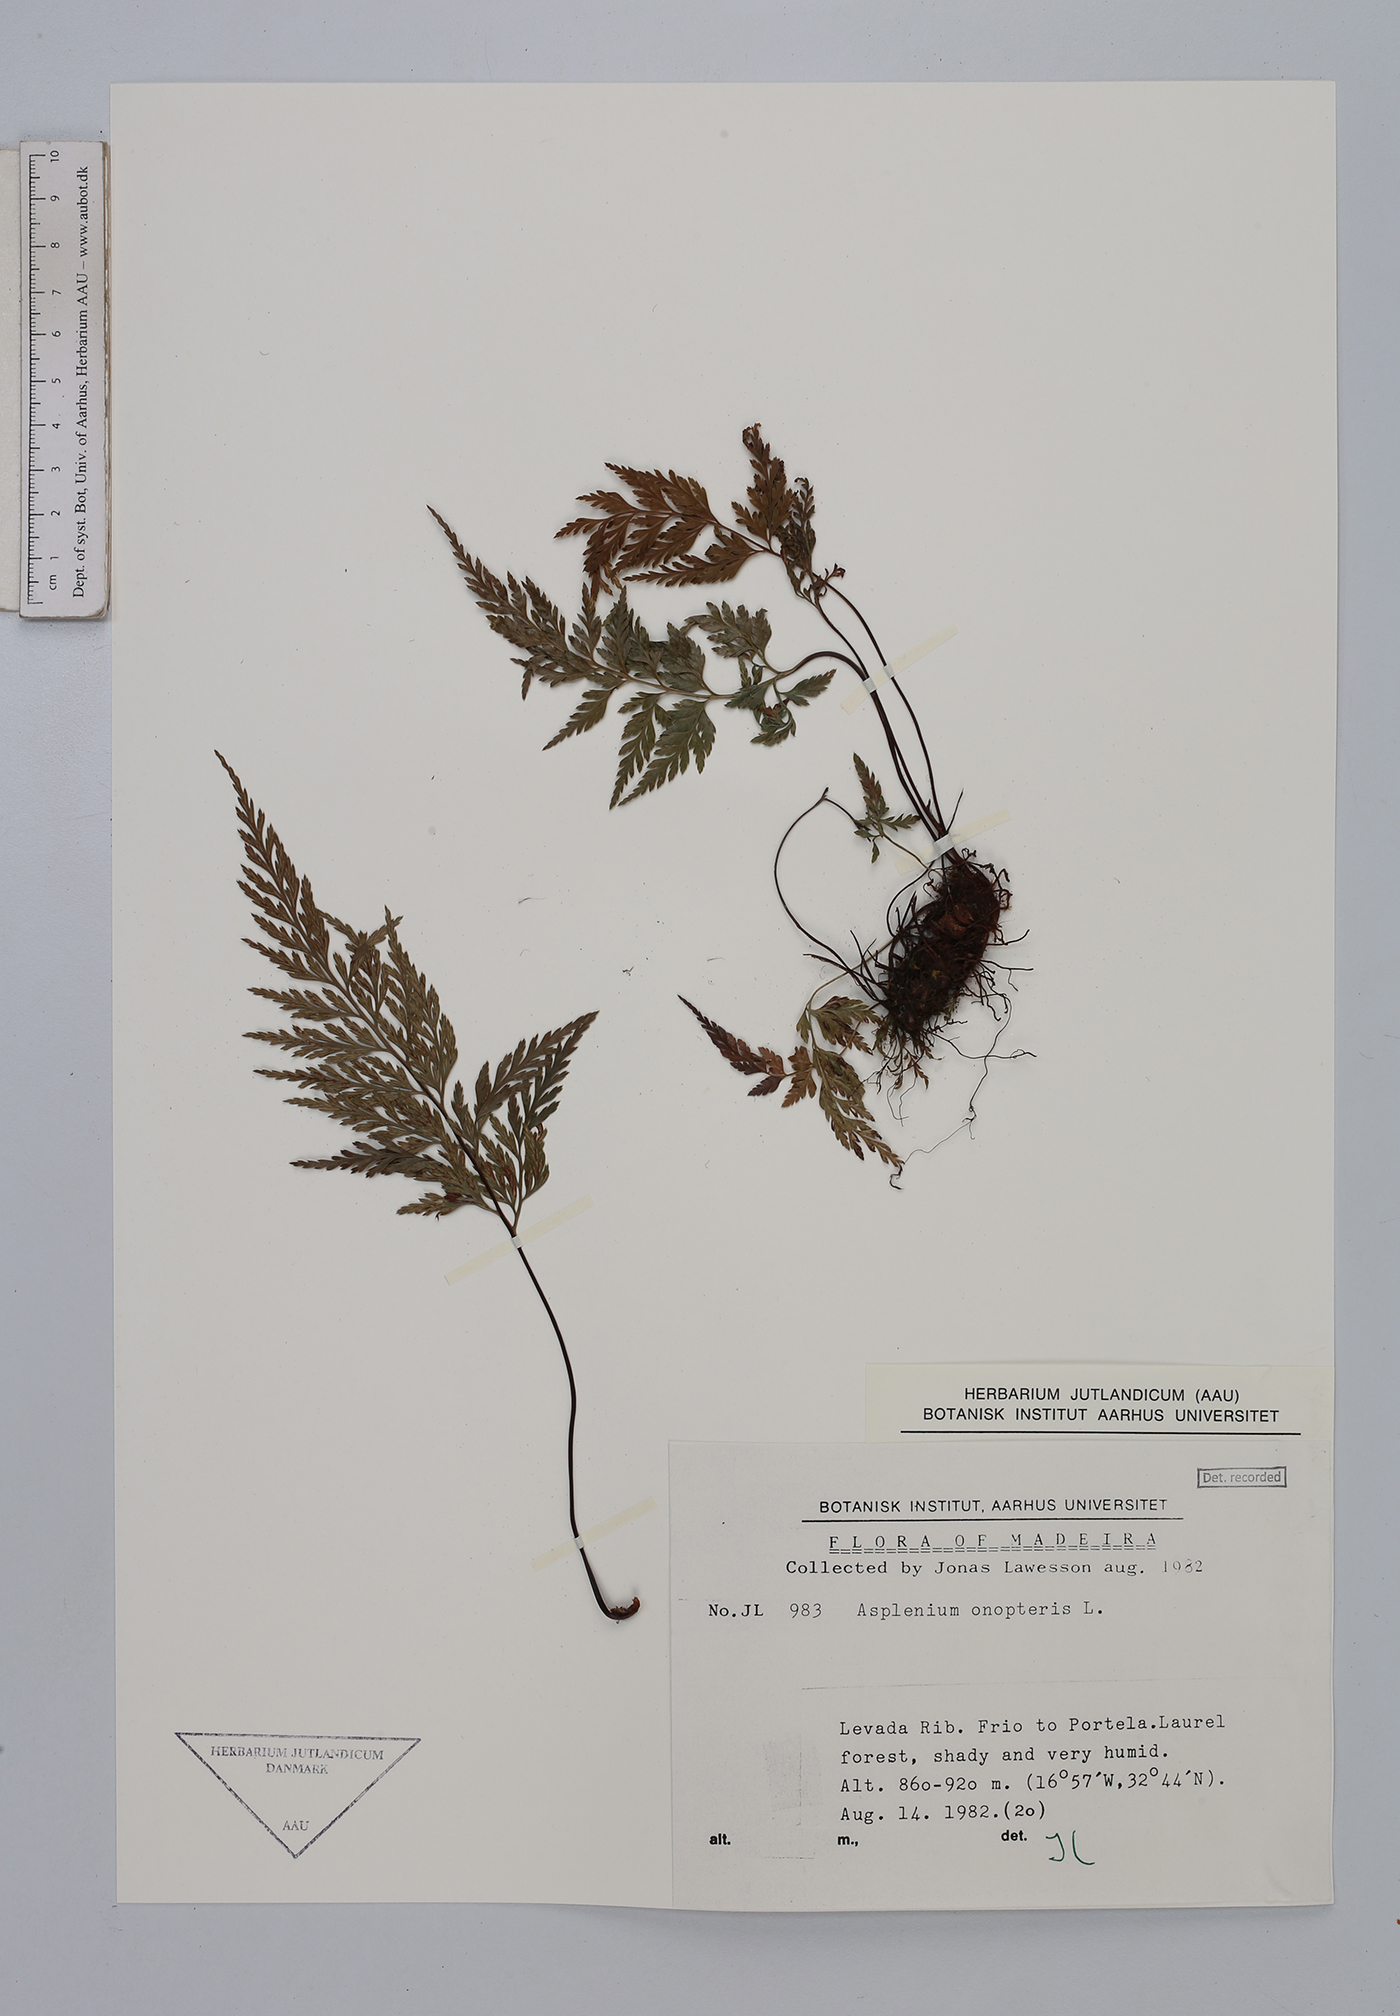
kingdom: Plantae
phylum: Tracheophyta
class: Polypodiopsida
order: Polypodiales
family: Aspleniaceae
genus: Asplenium
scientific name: Asplenium onopteris
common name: Irish spleenwort
